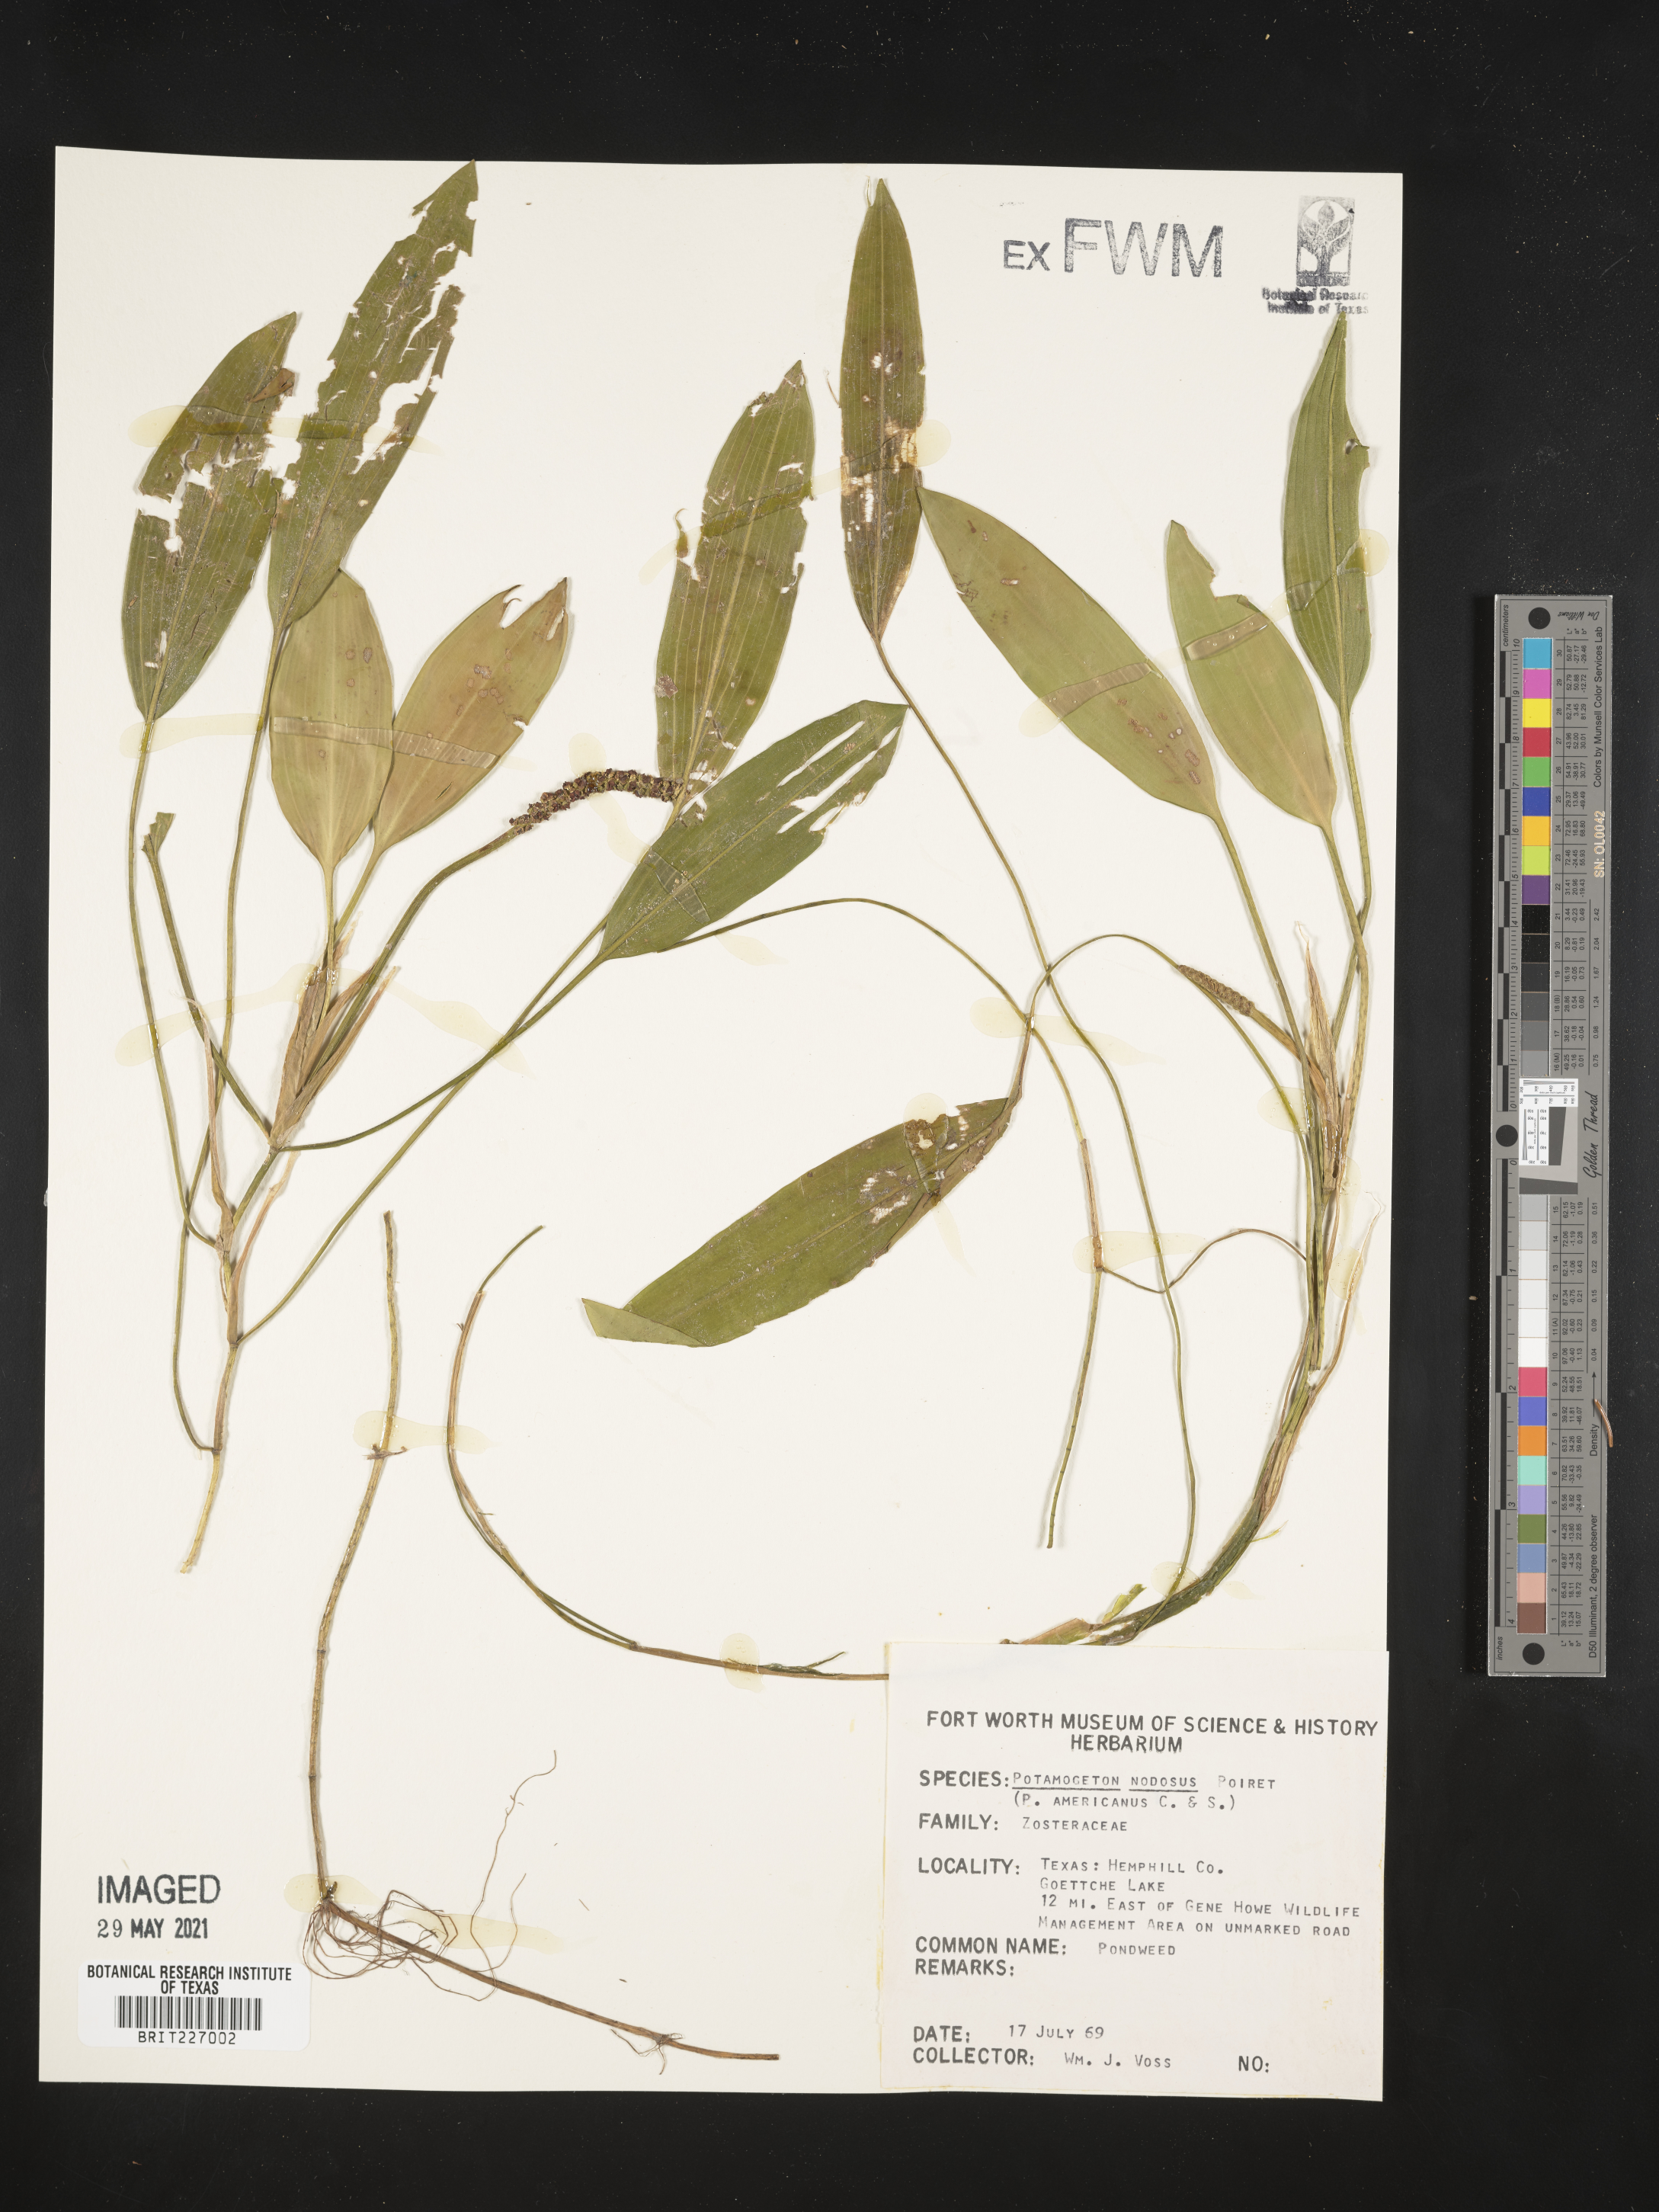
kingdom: Plantae
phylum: Tracheophyta
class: Liliopsida
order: Alismatales
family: Potamogetonaceae
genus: Potamogeton
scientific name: Potamogeton nodosus
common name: Loddon pondweed
